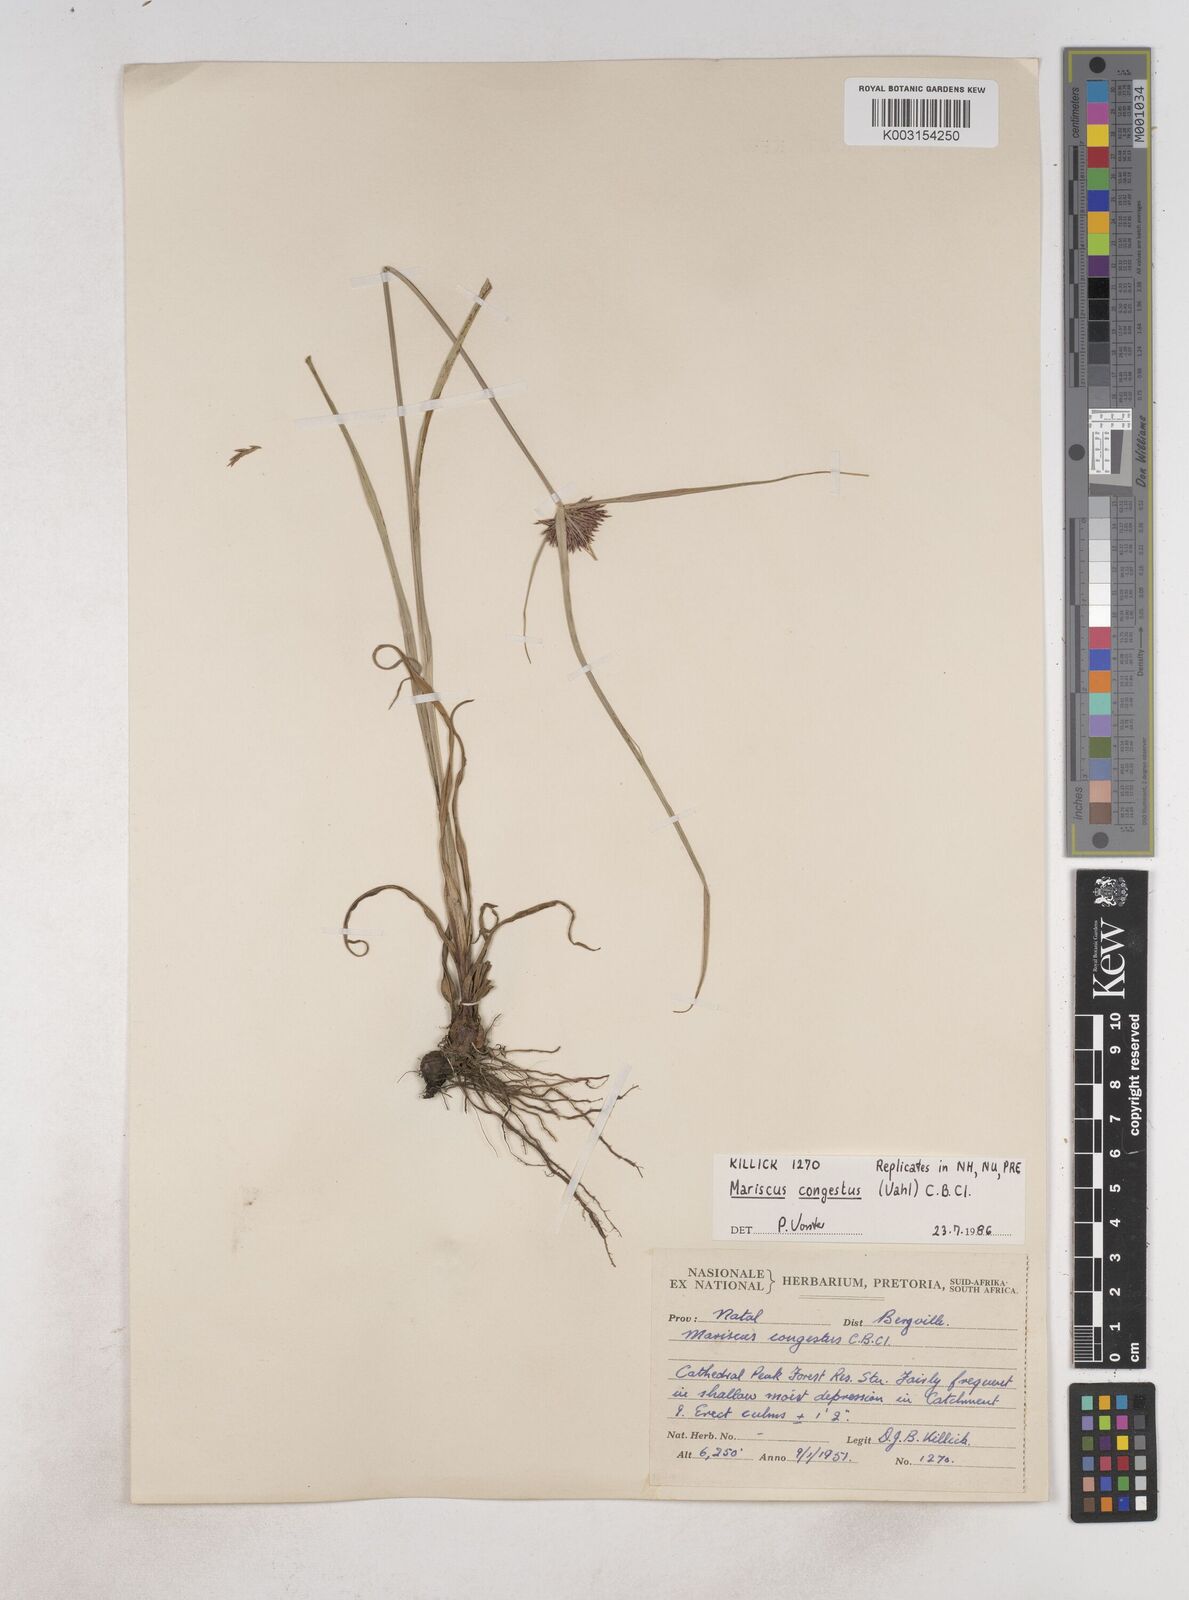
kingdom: Plantae
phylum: Tracheophyta
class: Liliopsida
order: Poales
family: Cyperaceae
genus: Cyperus
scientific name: Cyperus congestus
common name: Dense flat sedge
